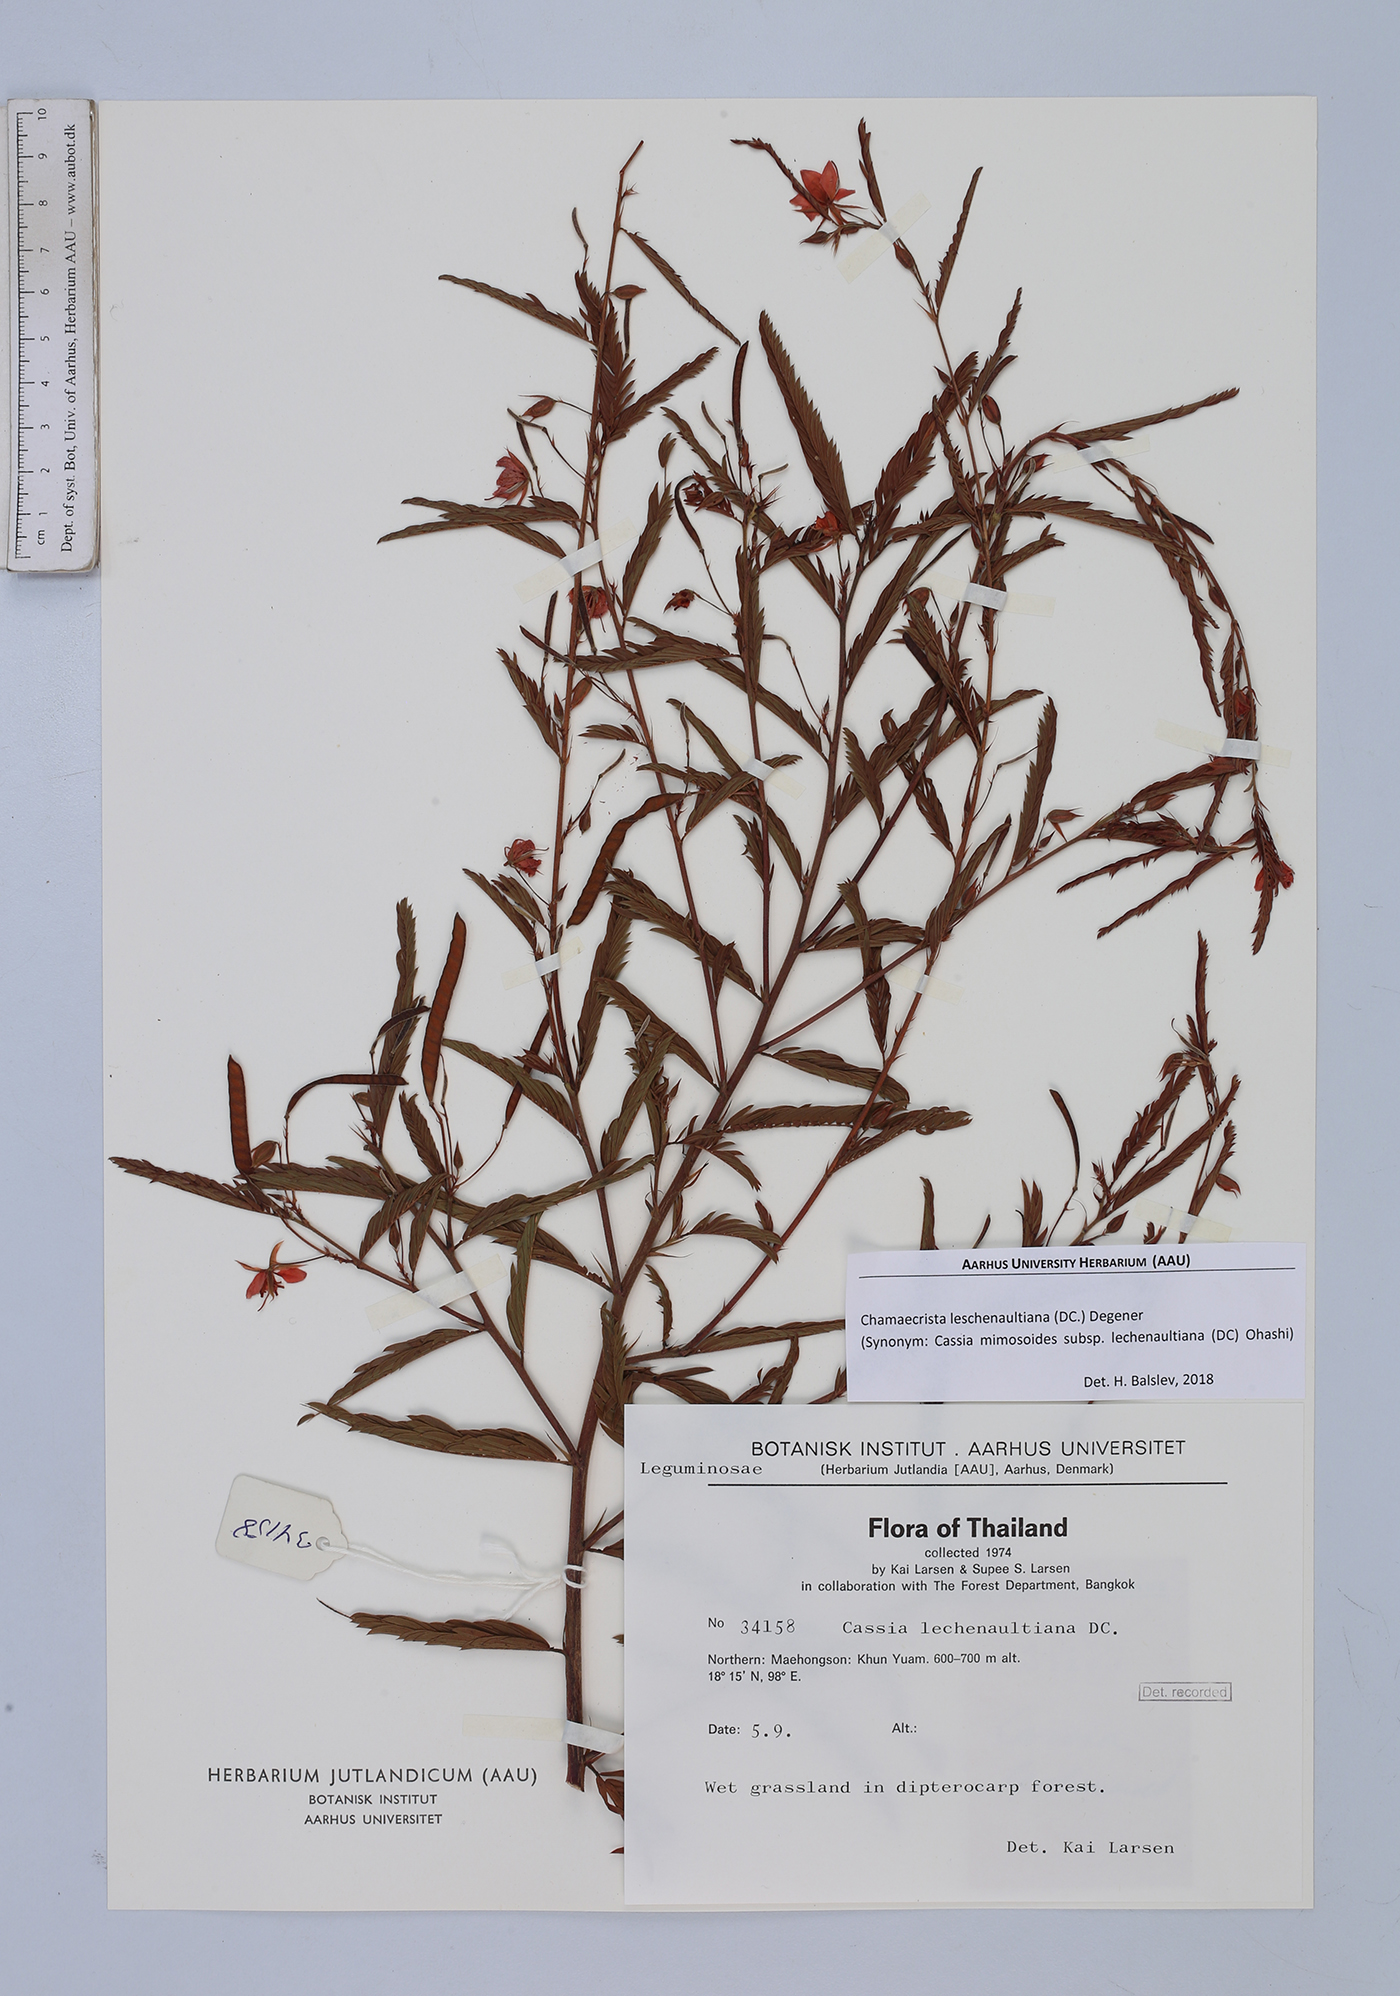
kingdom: Plantae
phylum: Tracheophyta
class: Magnoliopsida
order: Fabales
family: Fabaceae
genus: Chamaecrista
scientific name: Chamaecrista nictitans
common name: Sensitive cassia
